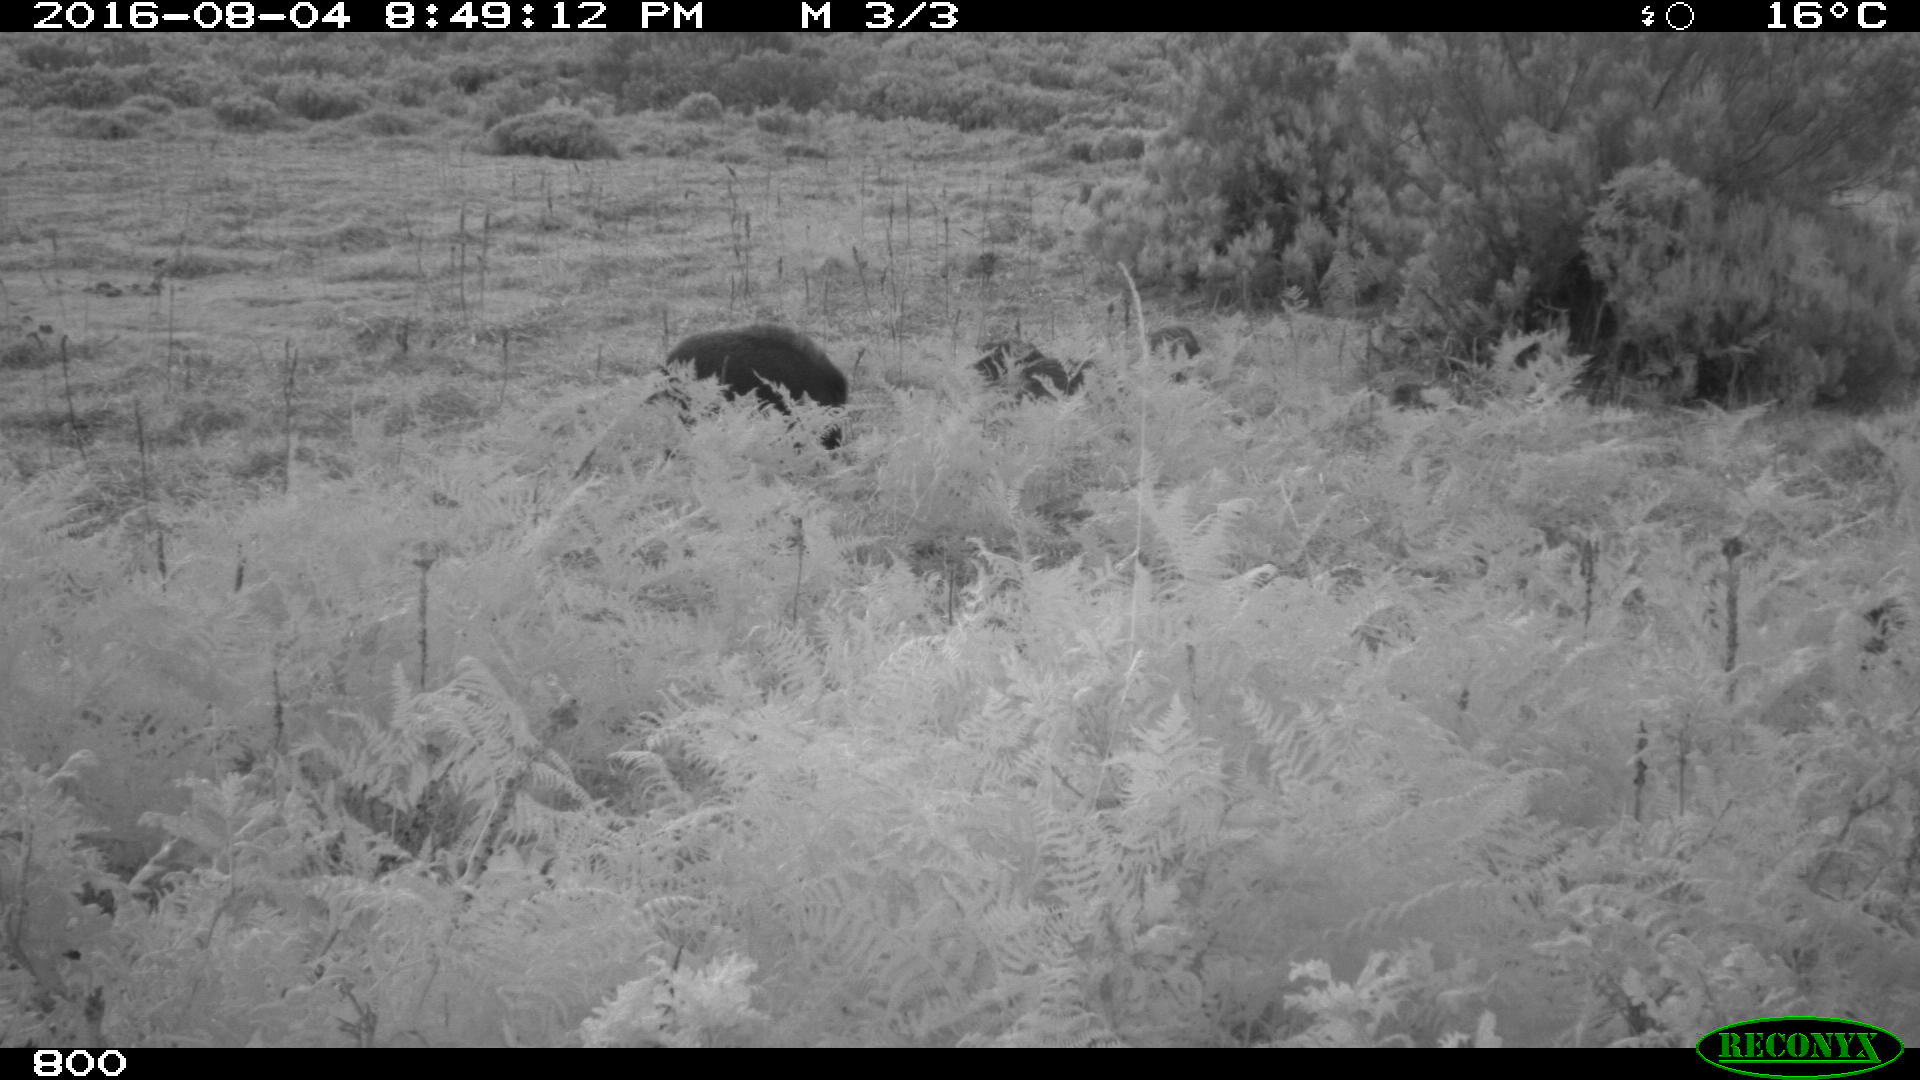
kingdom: Animalia
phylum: Chordata
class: Mammalia
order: Artiodactyla
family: Suidae
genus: Sus
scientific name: Sus scrofa
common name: Wild boar
